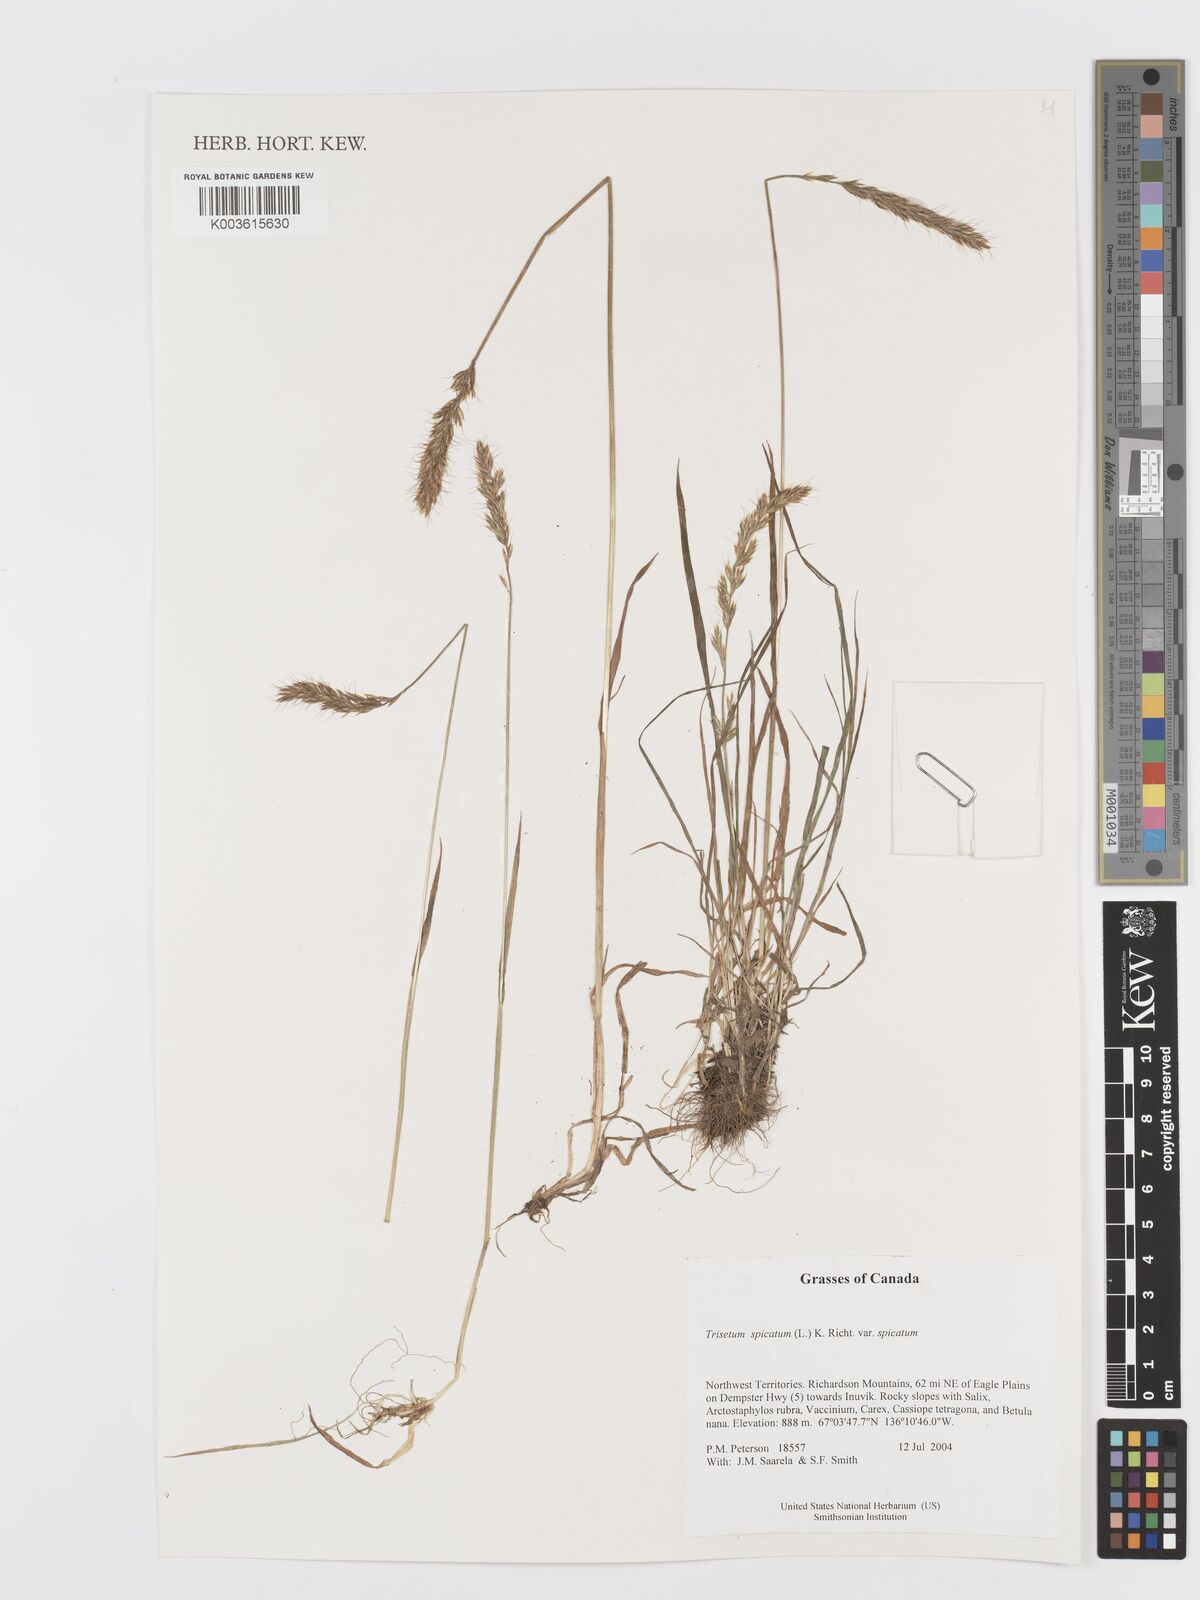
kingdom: Plantae
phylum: Tracheophyta
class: Liliopsida
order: Poales
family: Poaceae
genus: Koeleria
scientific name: Koeleria spicata
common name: Mountain trisetum
